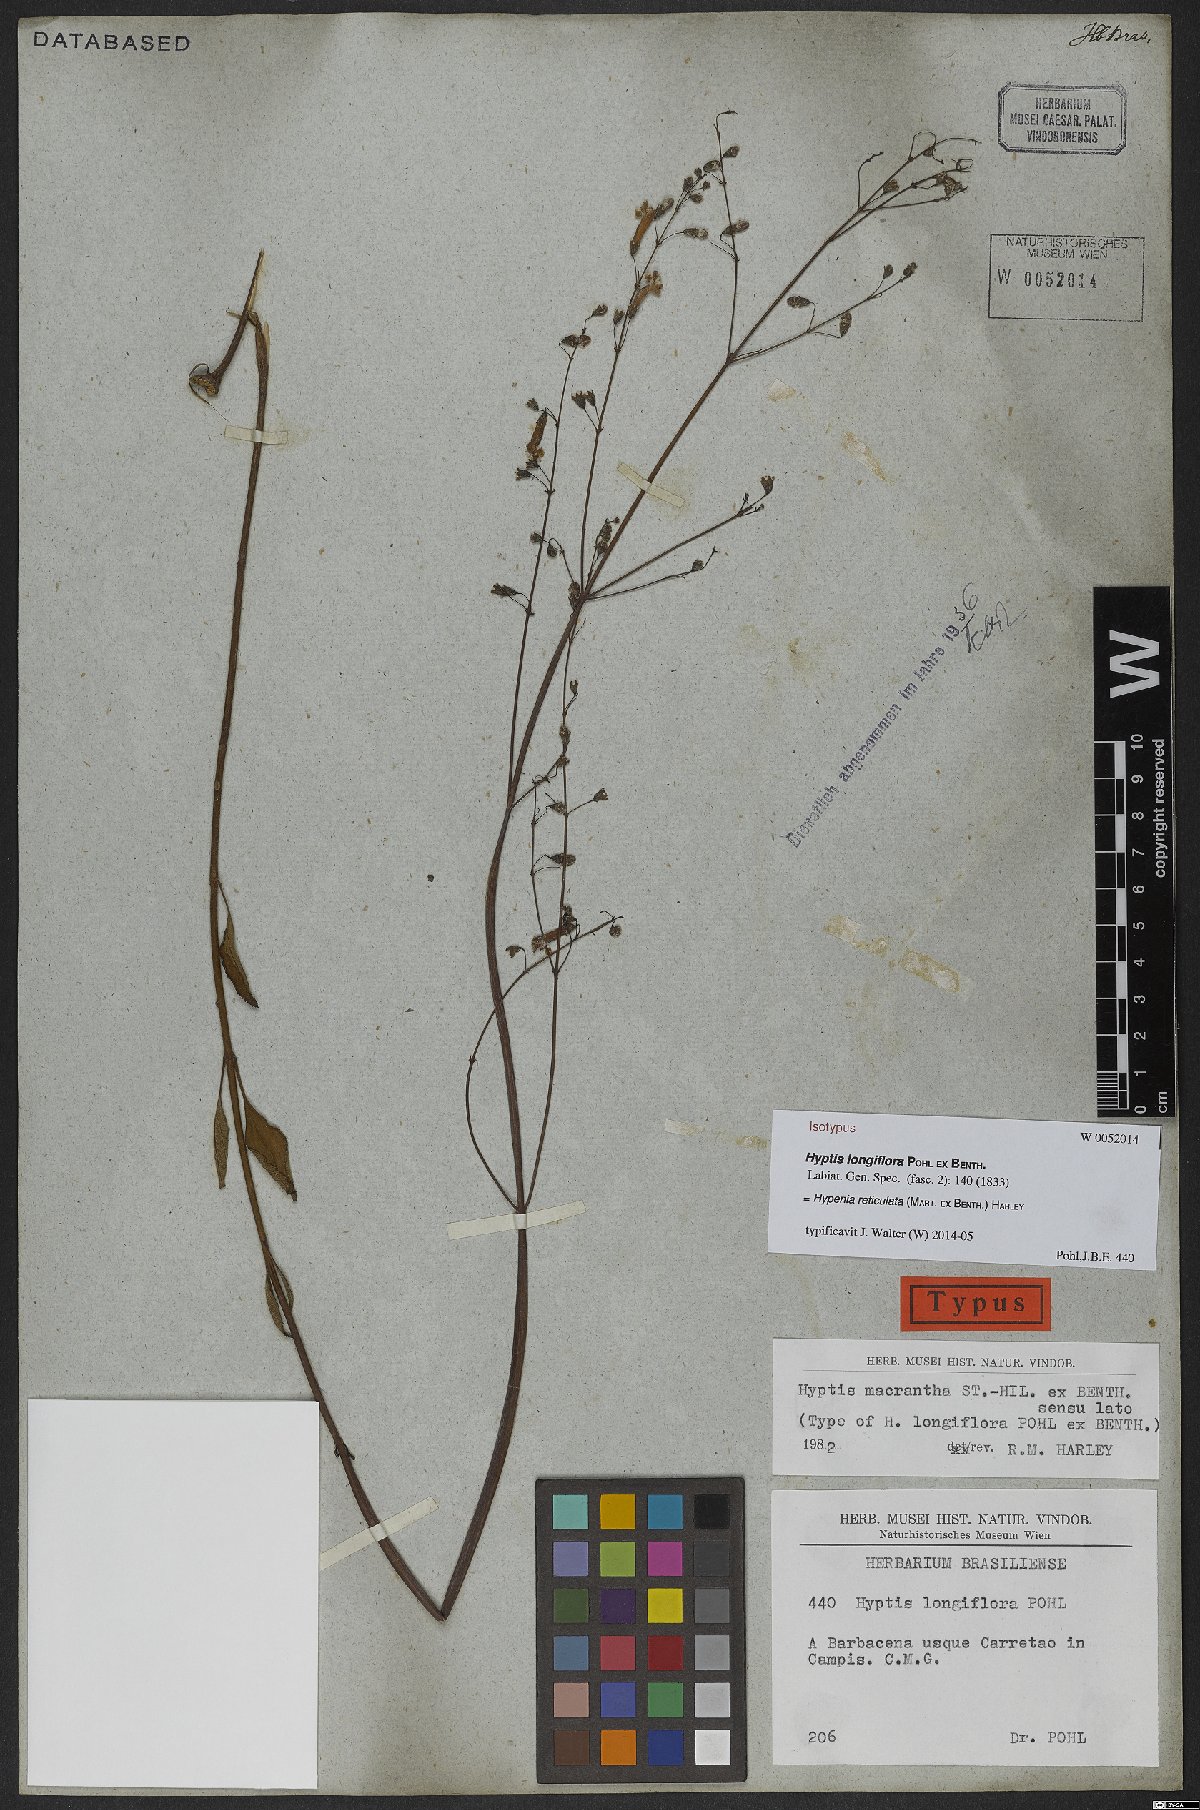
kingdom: Plantae
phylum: Tracheophyta
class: Magnoliopsida
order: Lamiales
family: Lamiaceae
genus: Hypenia
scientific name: Hypenia reticulata
